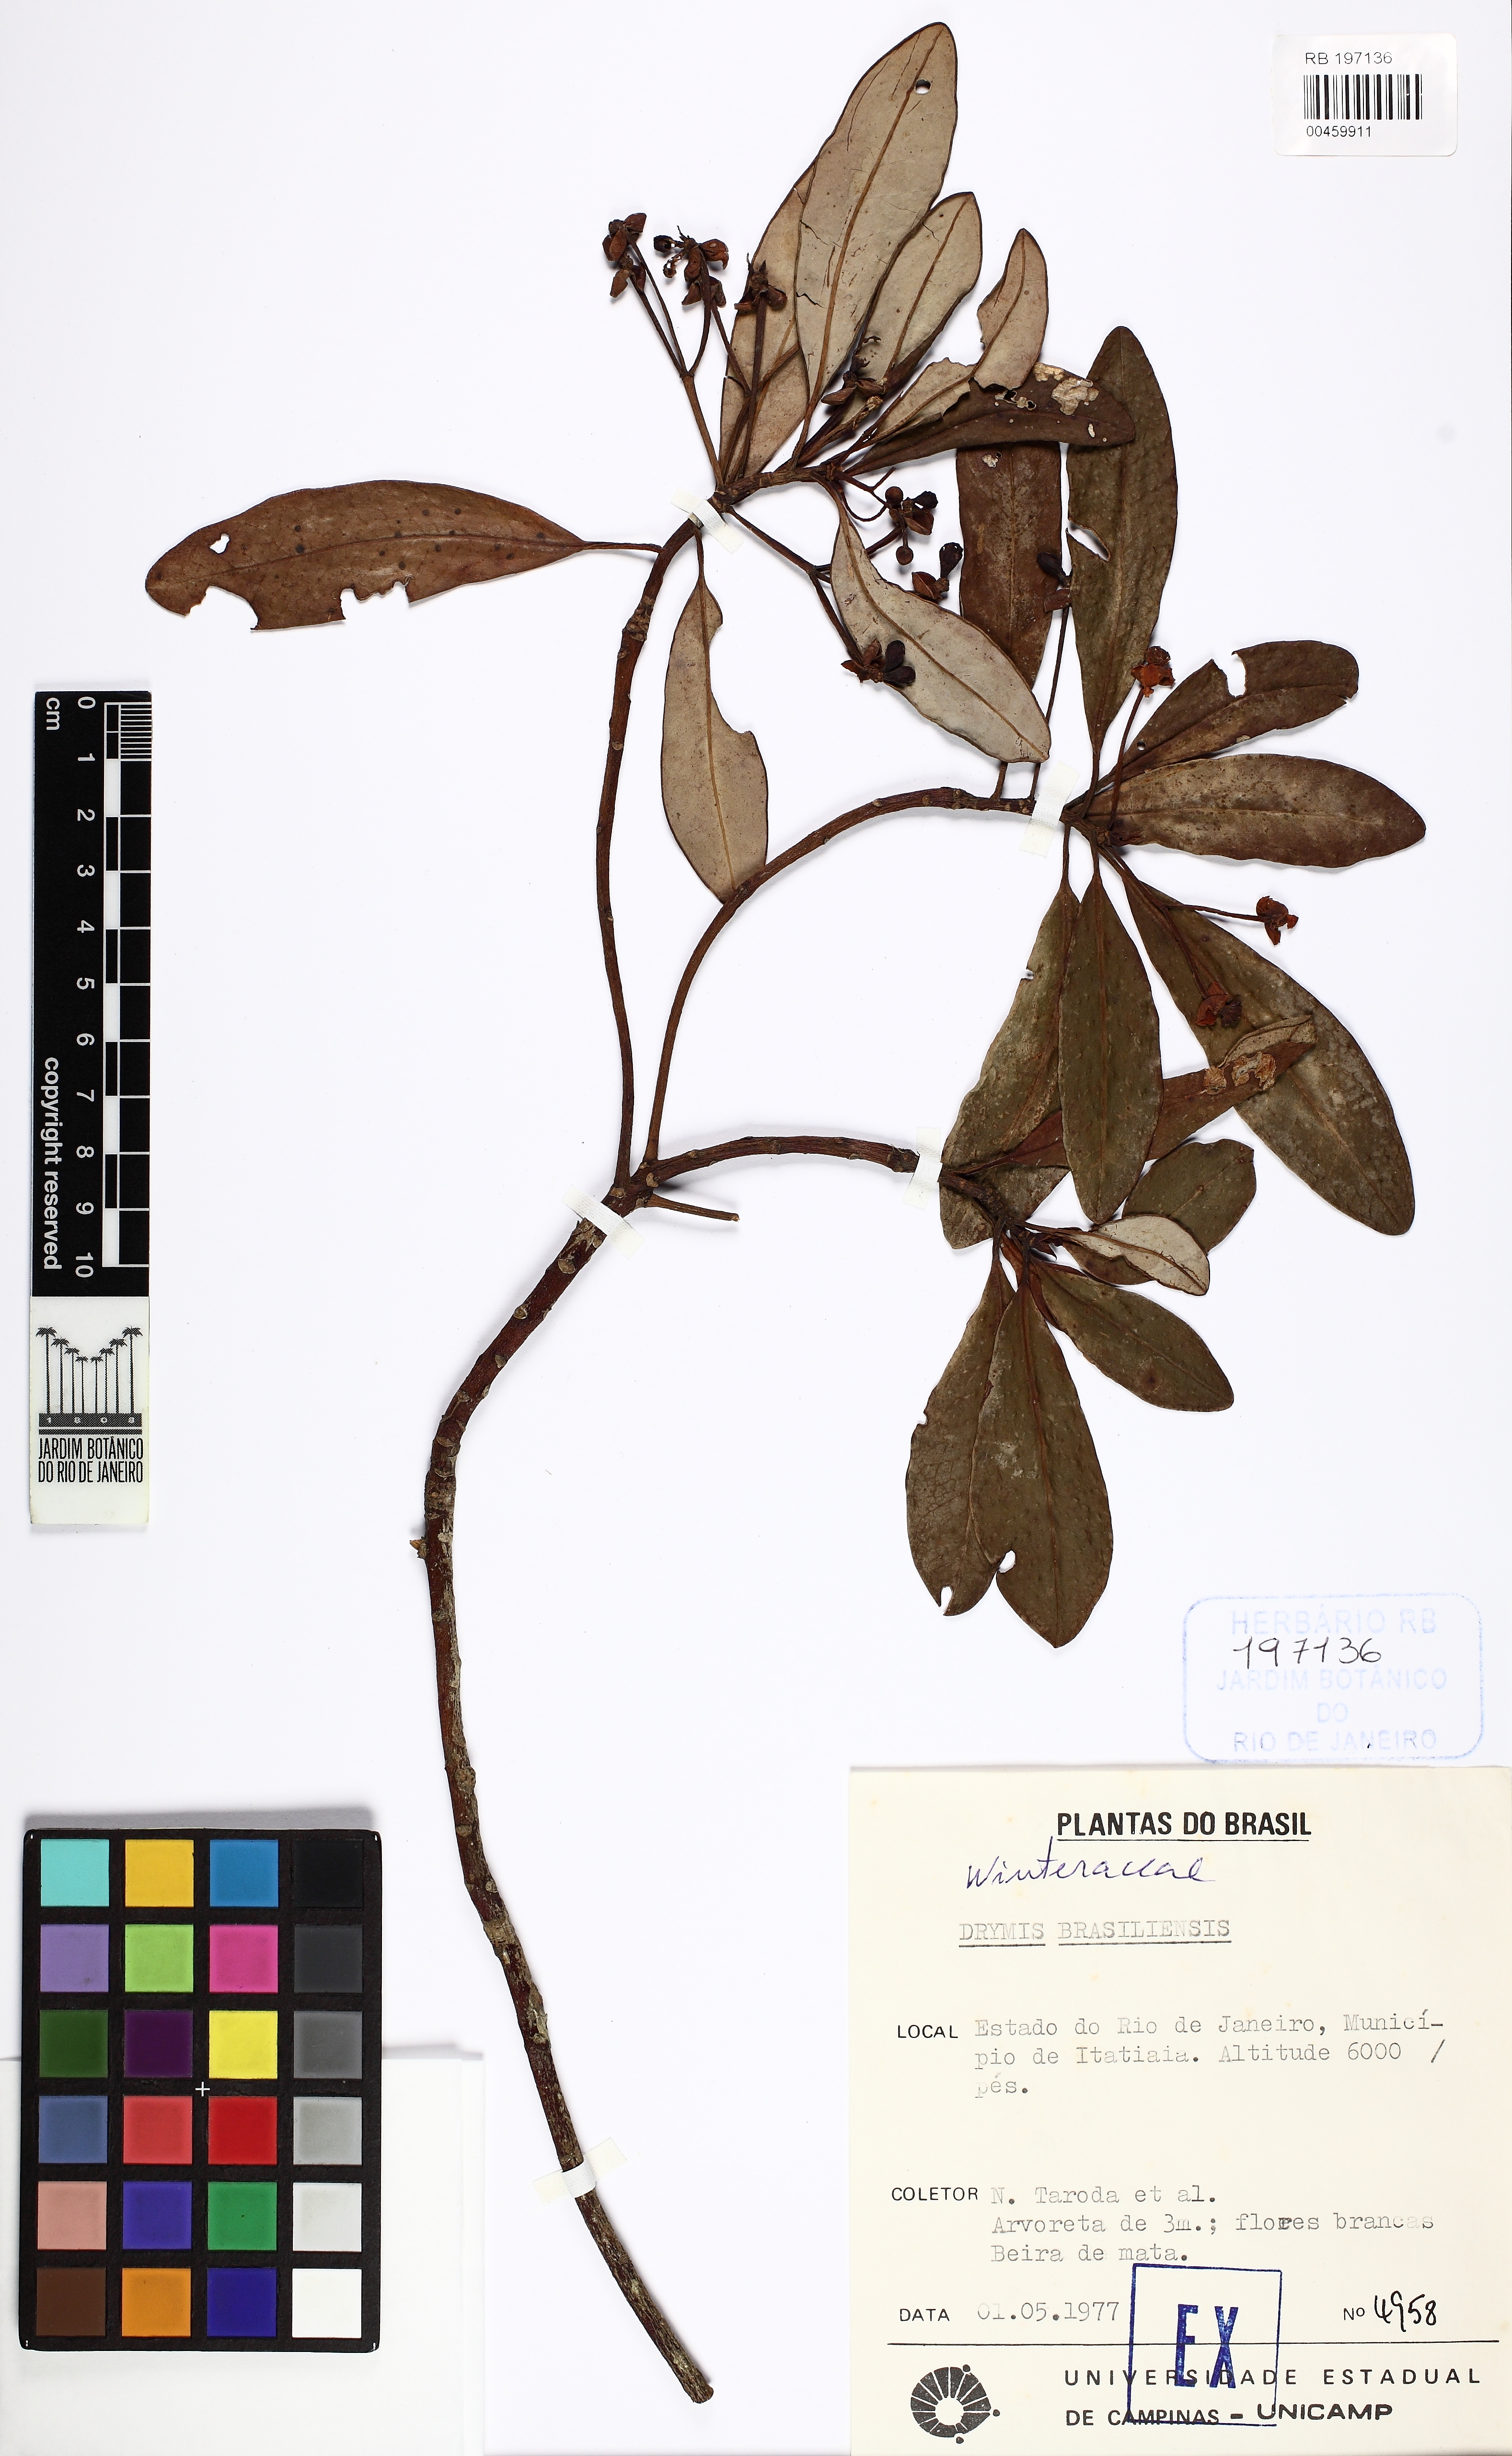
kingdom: Plantae
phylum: Tracheophyta
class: Magnoliopsida
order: Canellales
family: Winteraceae
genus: Drimys
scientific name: Drimys brasiliensis
